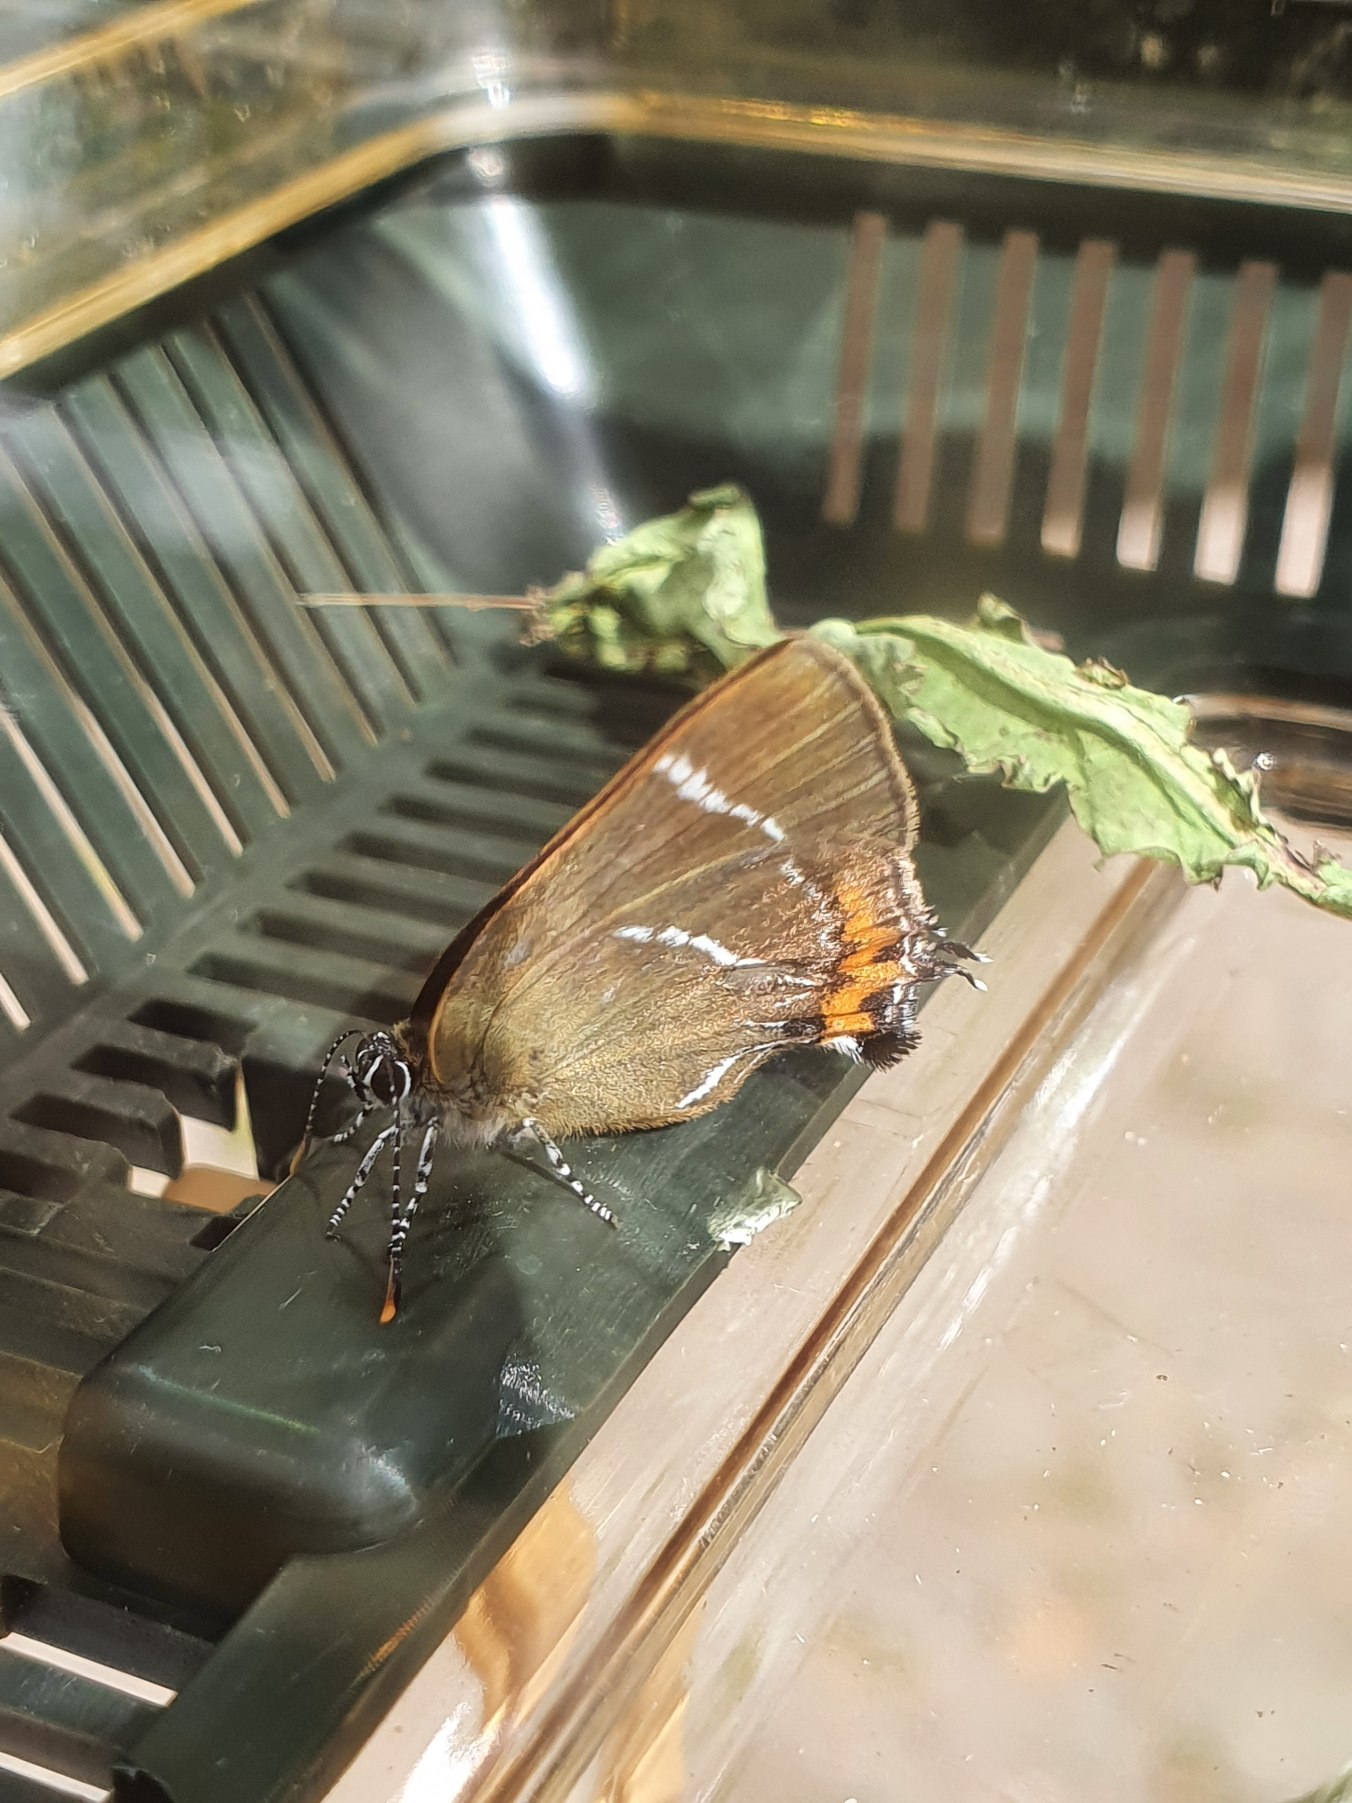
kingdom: Animalia
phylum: Arthropoda
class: Insecta
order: Lepidoptera
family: Lycaenidae
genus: Satyrium
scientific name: Satyrium w-album
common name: Det hvide W
